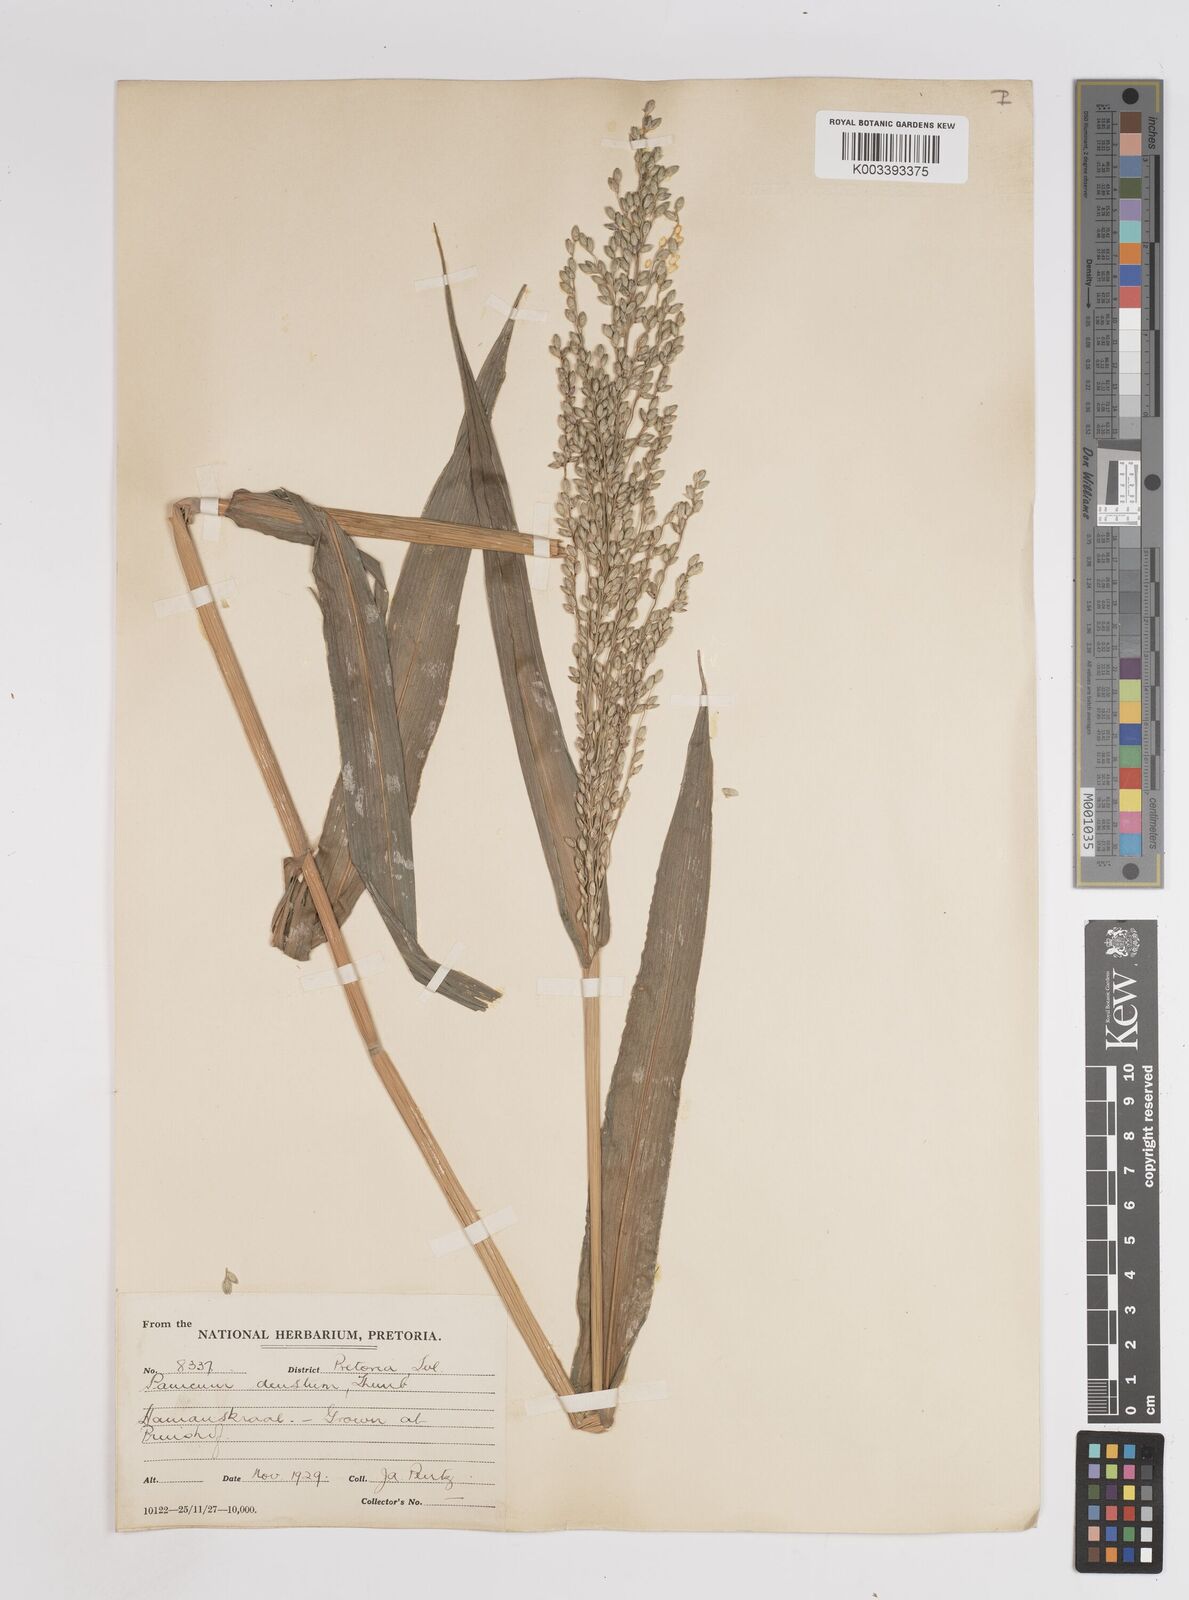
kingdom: Plantae
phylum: Tracheophyta
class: Liliopsida
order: Poales
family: Poaceae
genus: Panicum
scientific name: Panicum deustum
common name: Reed panicum
